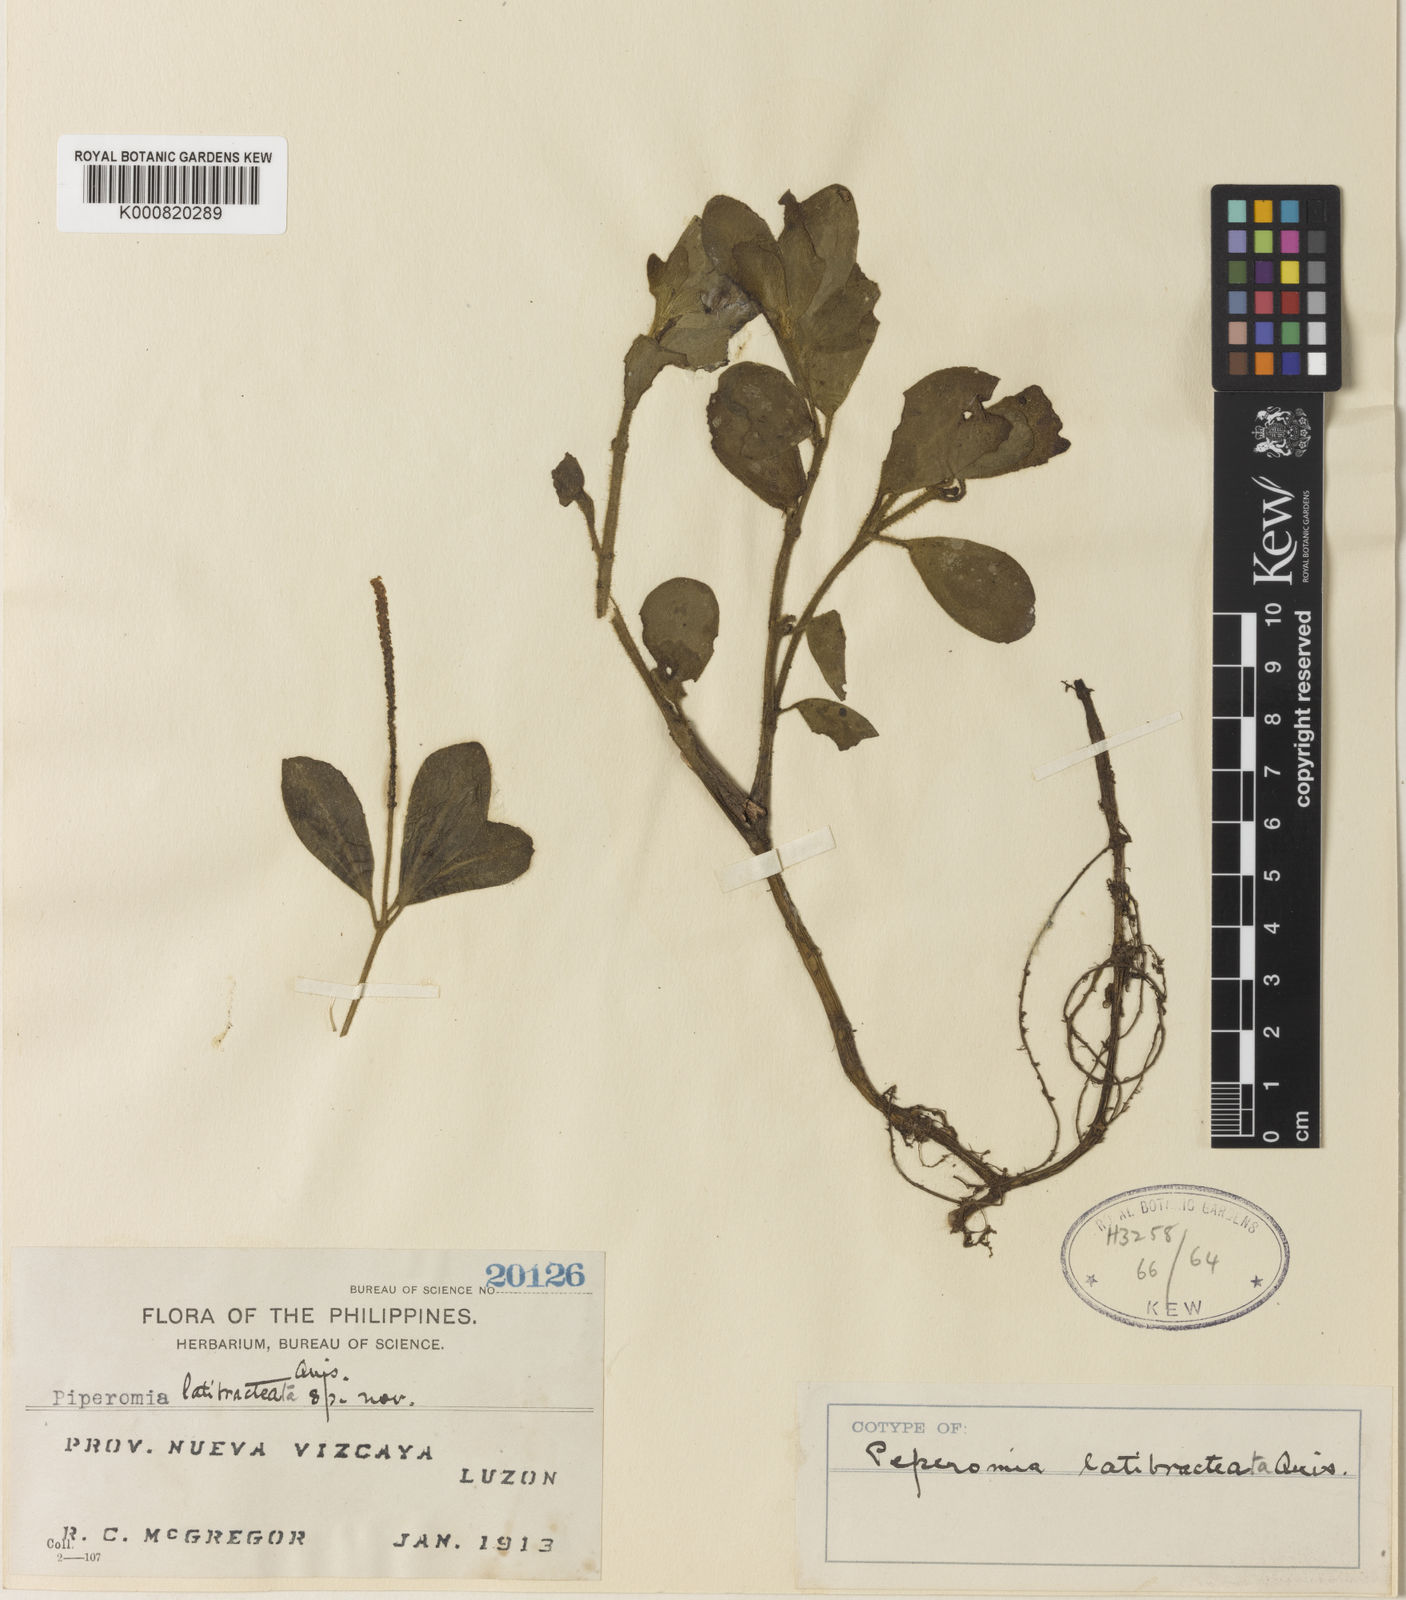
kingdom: Plantae
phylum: Tracheophyta
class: Magnoliopsida
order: Piperales
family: Piperaceae
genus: Peperomia
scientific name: Peperomia latibracteata
